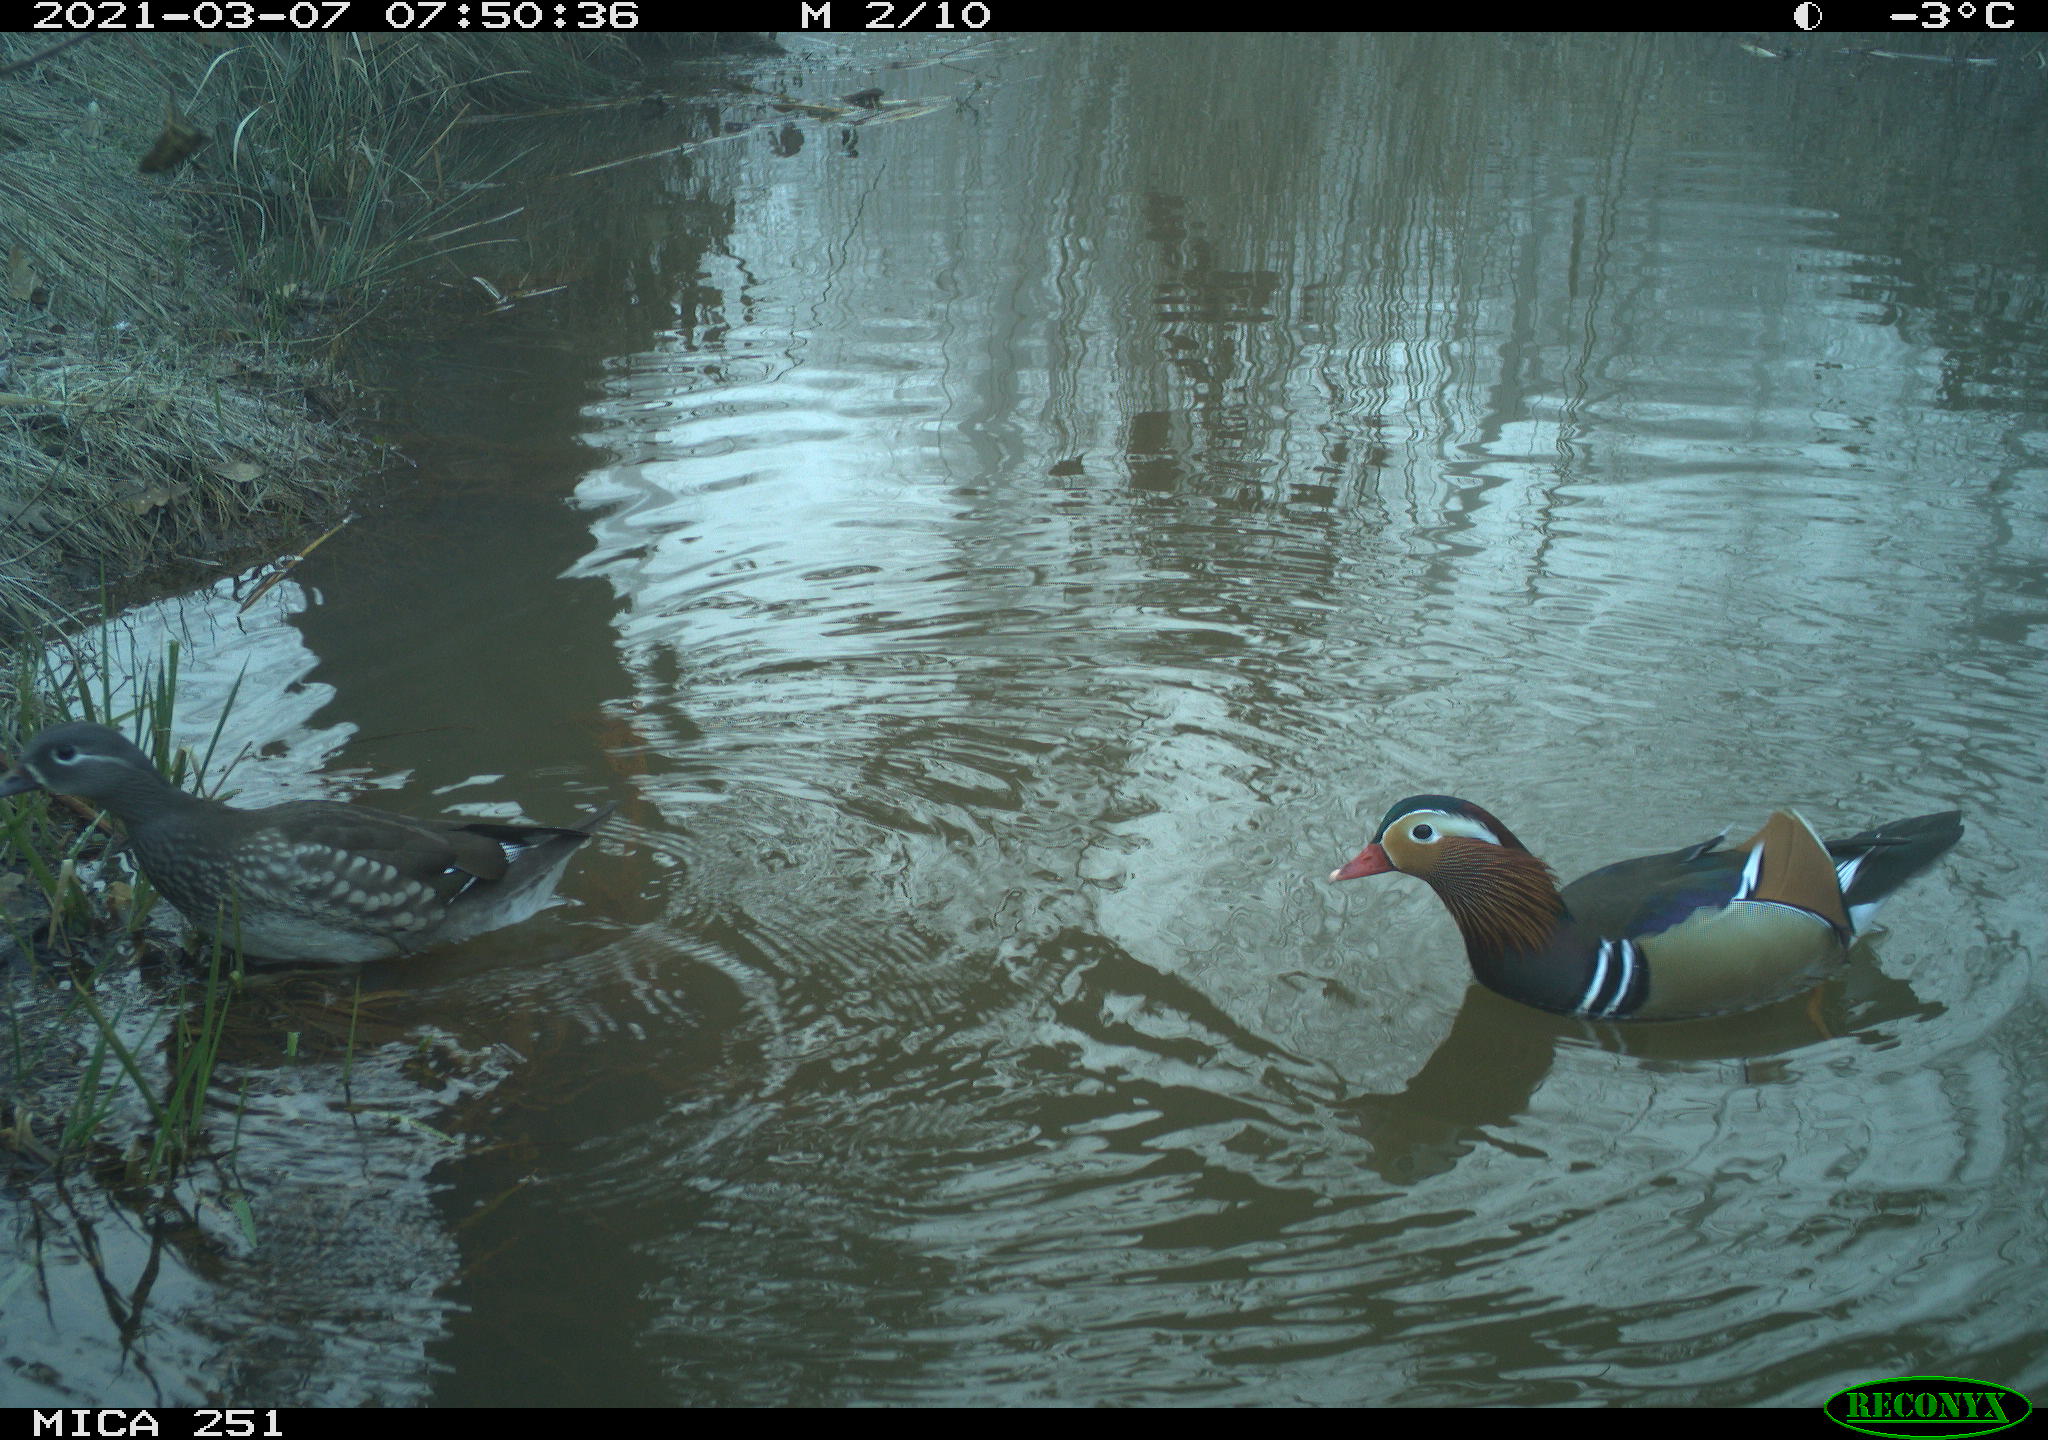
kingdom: Animalia
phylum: Chordata
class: Aves
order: Anseriformes
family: Anatidae
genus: Aix
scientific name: Aix galericulata
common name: Mandarin duck
